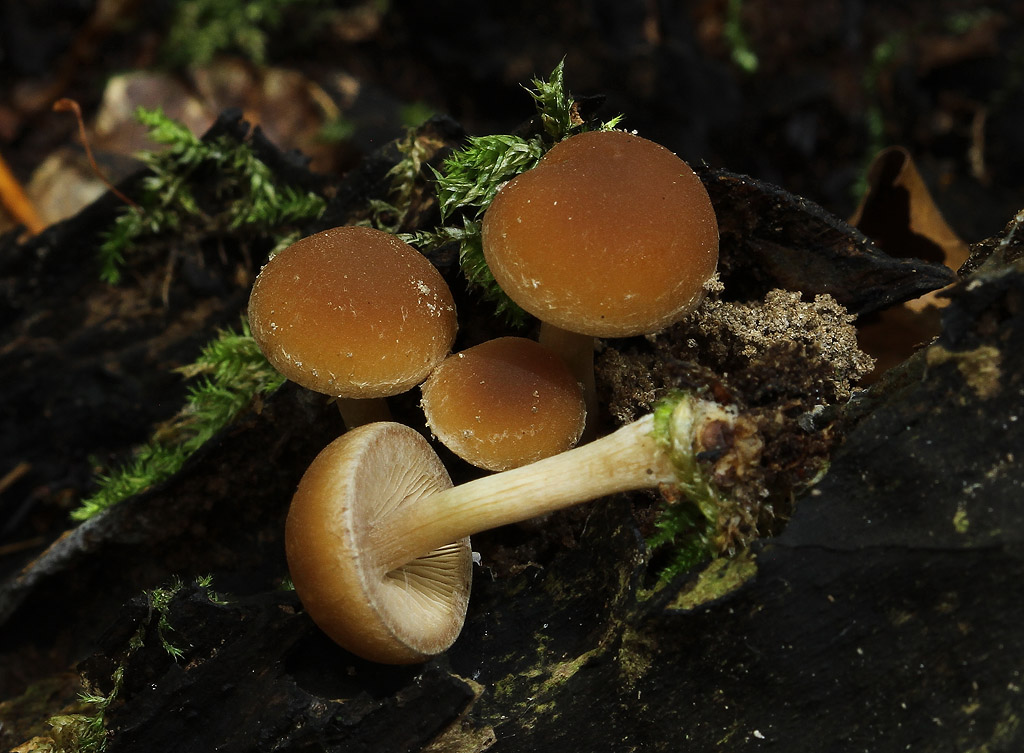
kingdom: Fungi
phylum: Basidiomycota
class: Agaricomycetes
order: Agaricales
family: Psathyrellaceae
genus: Psathyrella
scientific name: Psathyrella piluliformis
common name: lysstokket mørkhat
